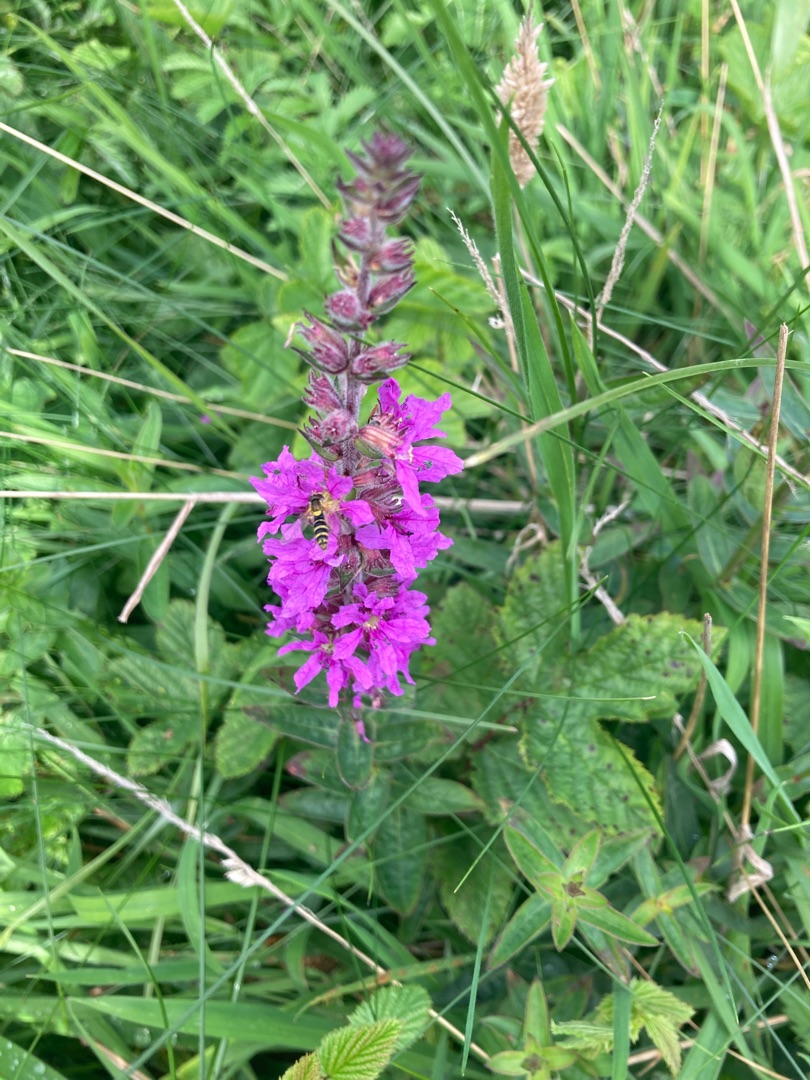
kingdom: Plantae
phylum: Tracheophyta
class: Magnoliopsida
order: Myrtales
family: Lythraceae
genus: Lythrum
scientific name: Lythrum salicaria
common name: Kattehale
